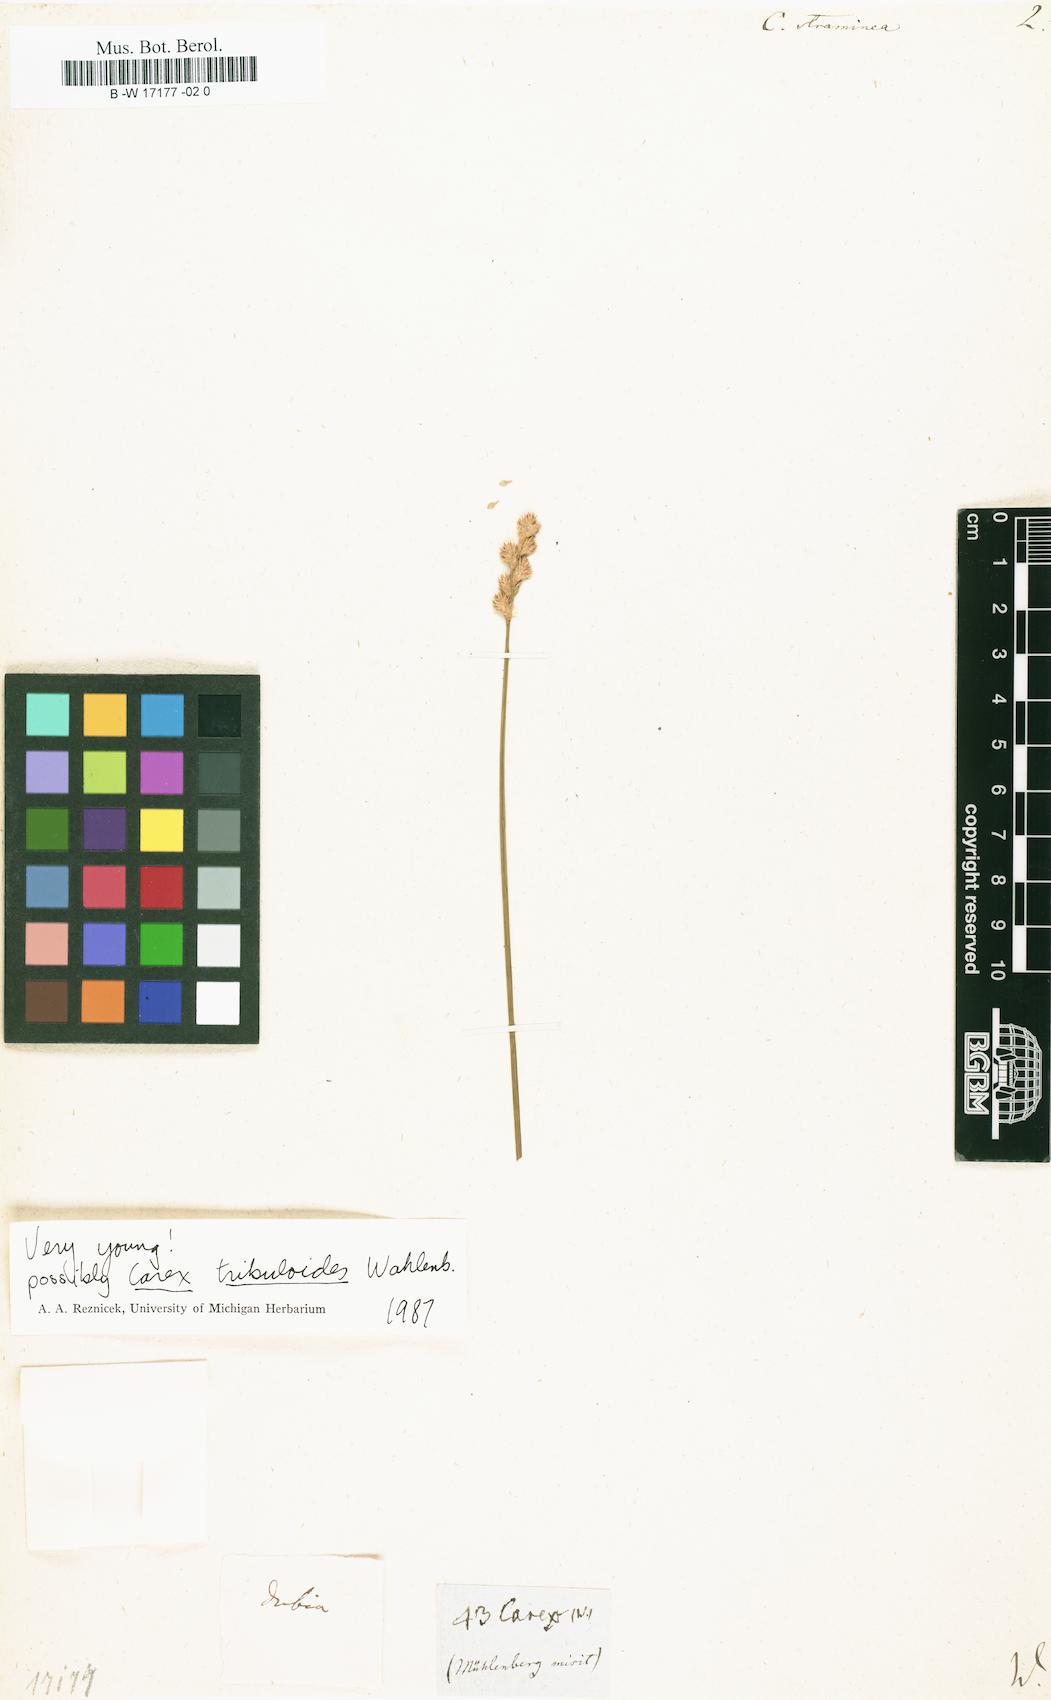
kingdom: Plantae
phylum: Tracheophyta
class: Liliopsida
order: Poales
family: Cyperaceae
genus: Carex
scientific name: Carex straminea
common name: Eastern straw sedge
